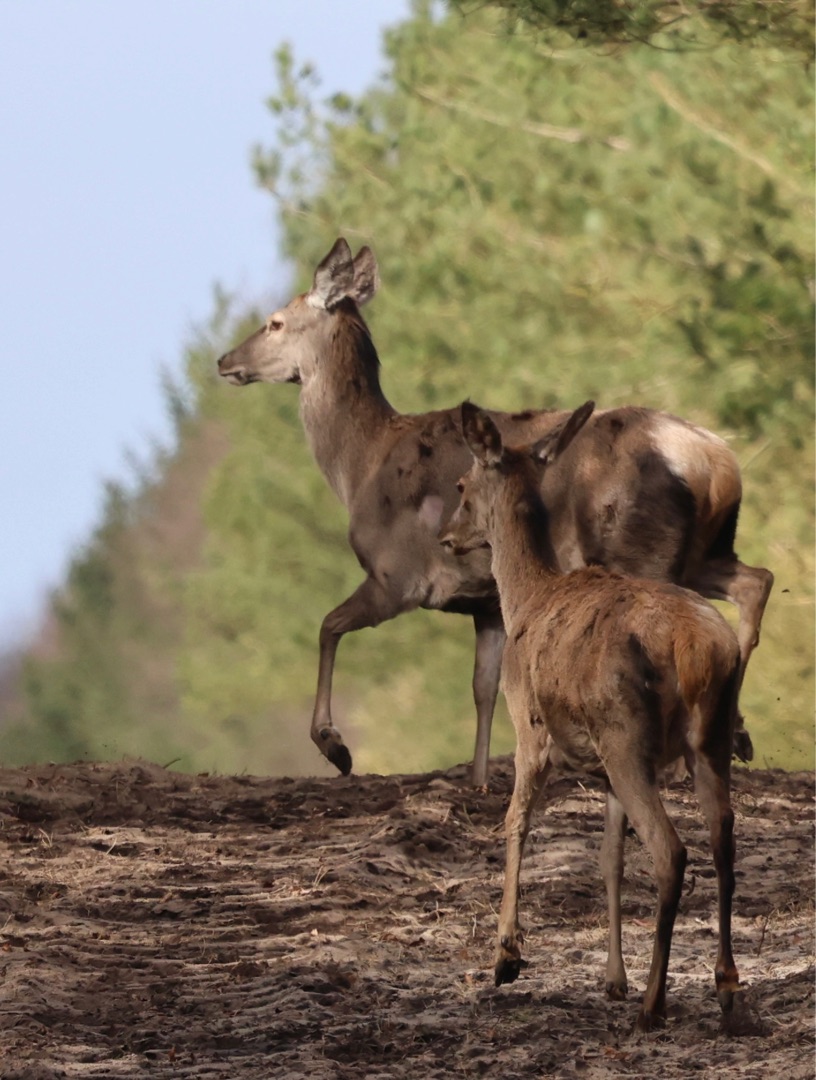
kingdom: Animalia
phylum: Chordata
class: Mammalia
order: Artiodactyla
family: Cervidae
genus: Cervus
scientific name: Cervus elaphus
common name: Krondyr
